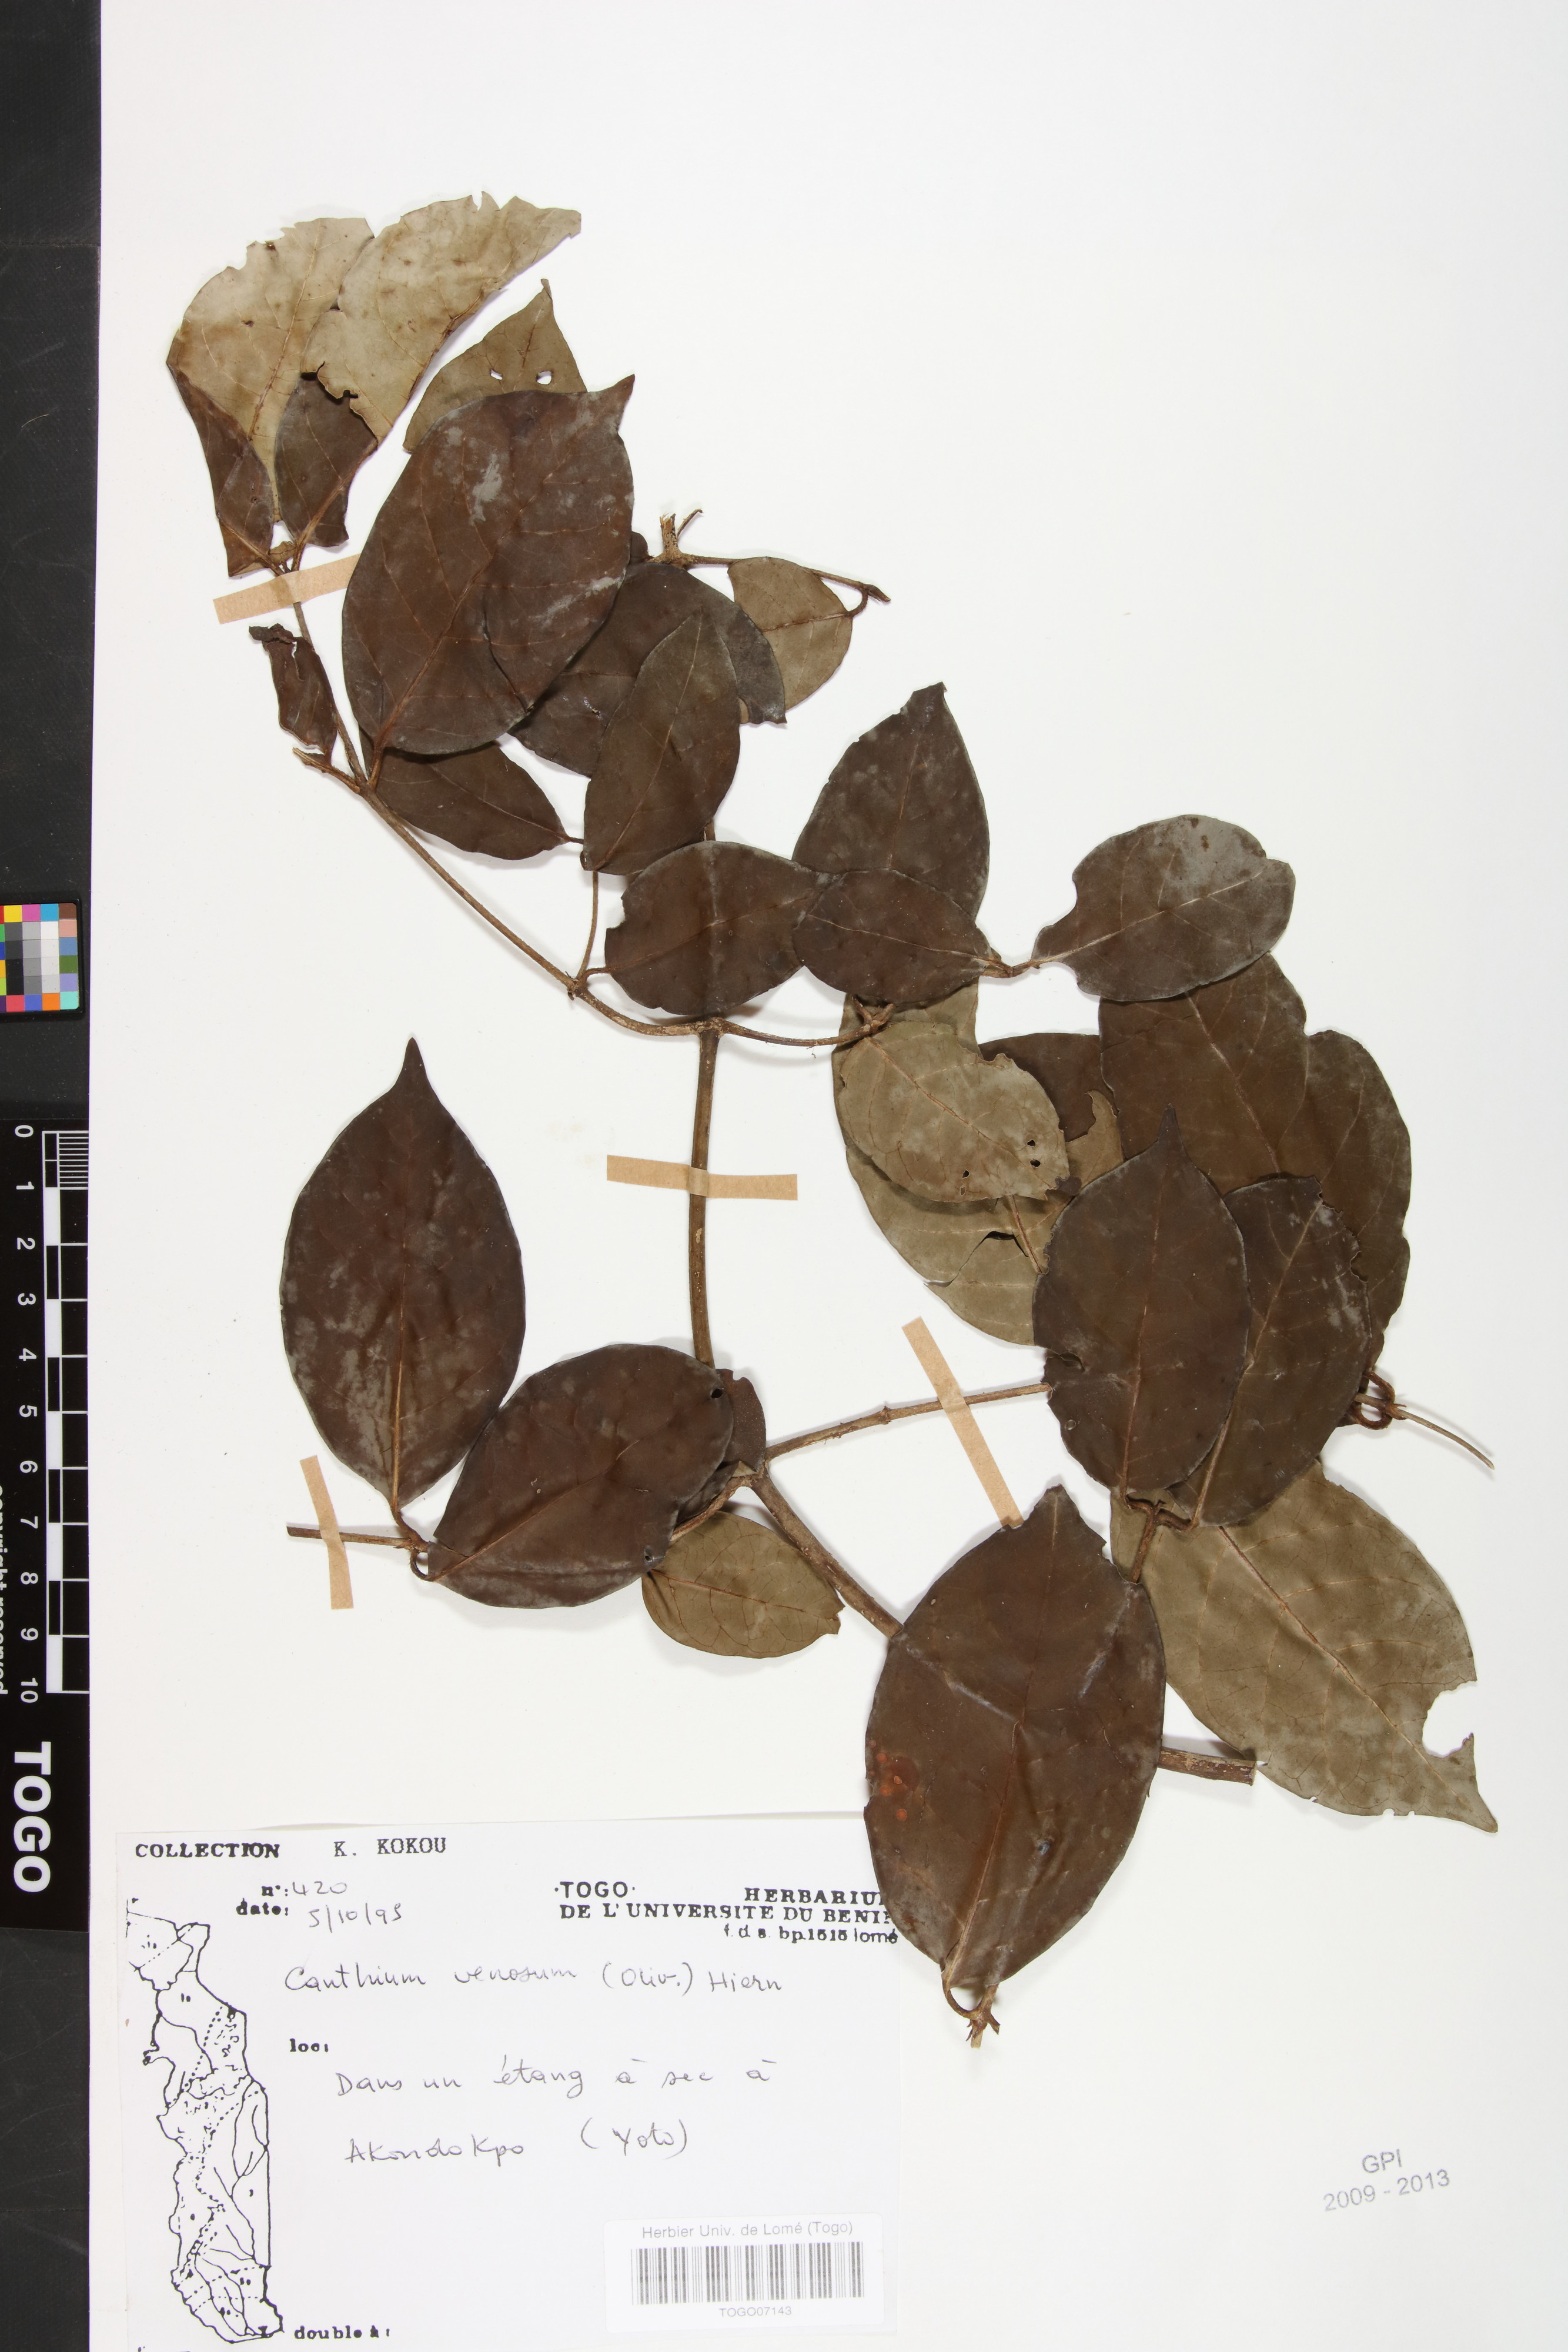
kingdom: Plantae
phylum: Tracheophyta
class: Magnoliopsida
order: Gentianales
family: Rubiaceae
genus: Keetia
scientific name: Keetia venosa
